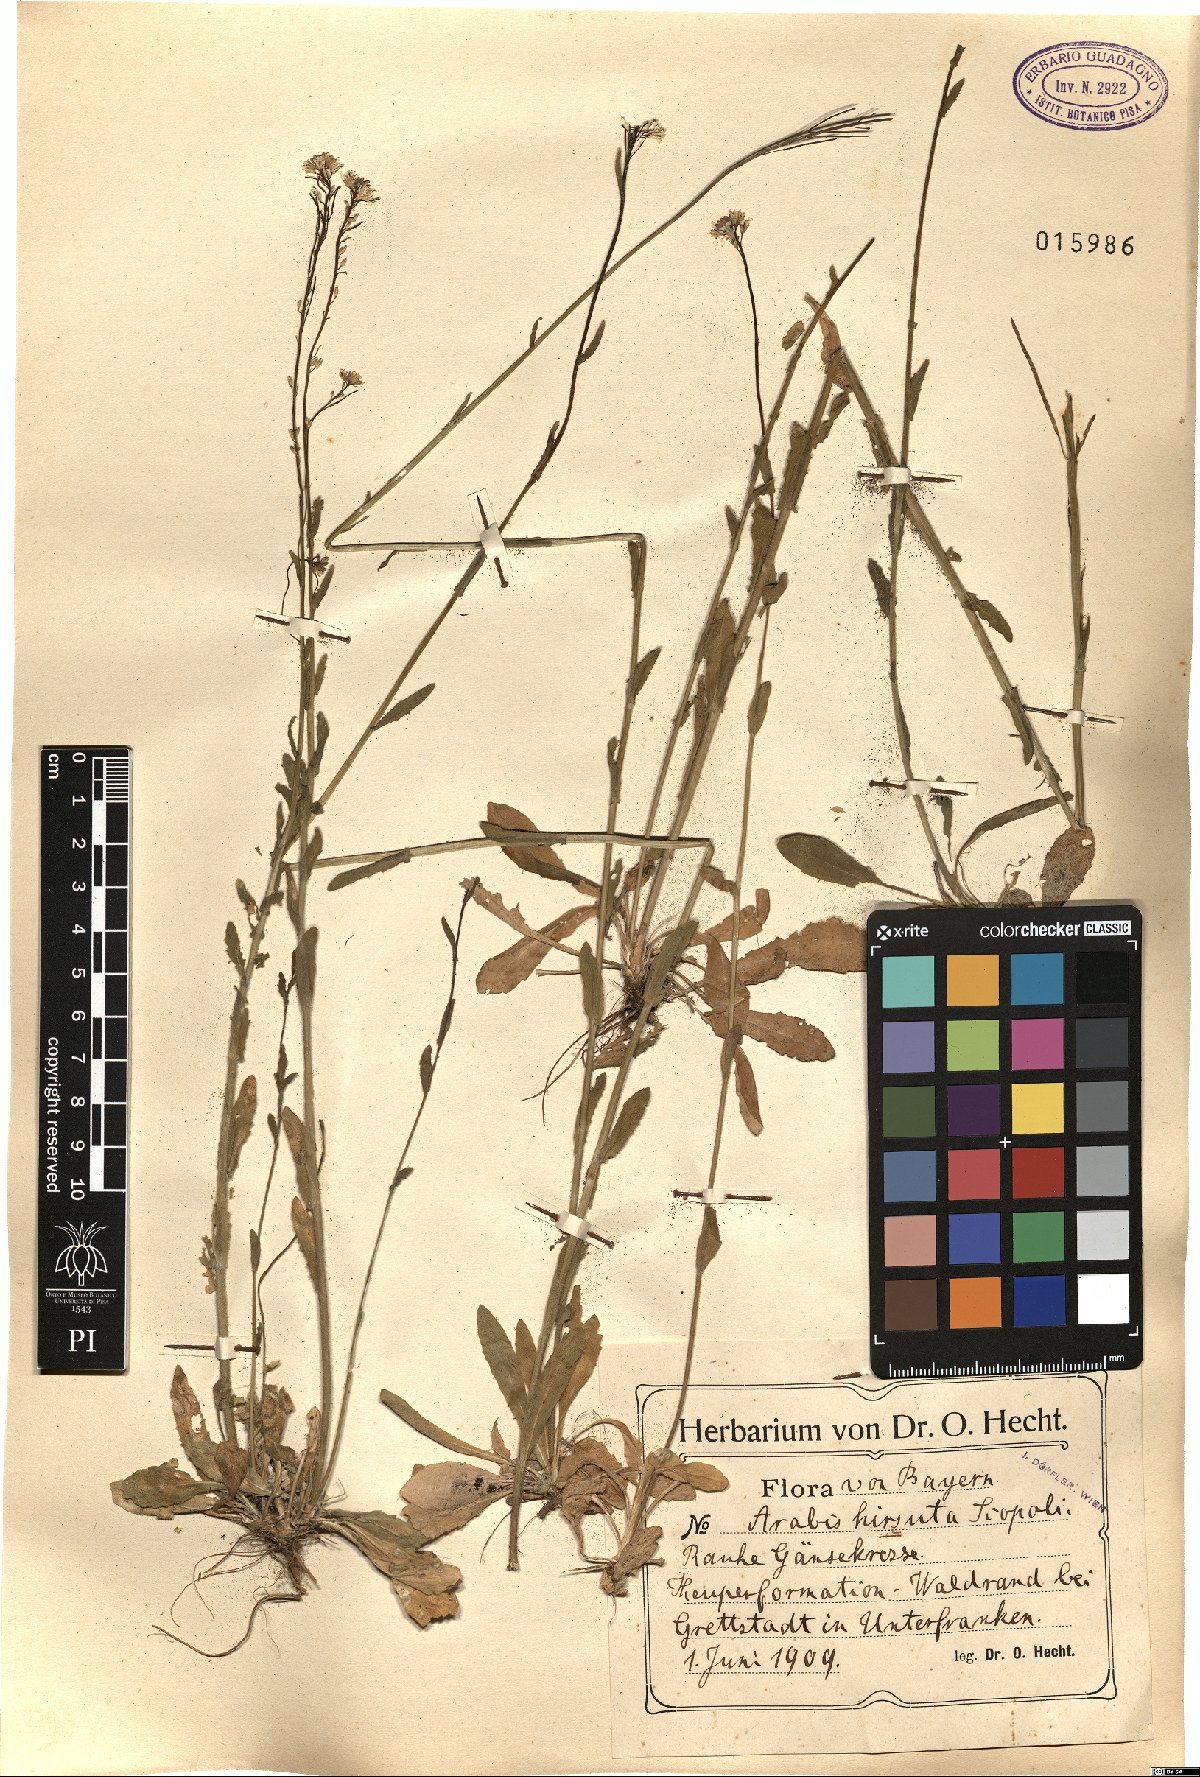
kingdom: Plantae
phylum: Tracheophyta
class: Magnoliopsida
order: Brassicales
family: Brassicaceae
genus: Arabis
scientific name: Arabis hirsuta
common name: Hairy rock-cress
